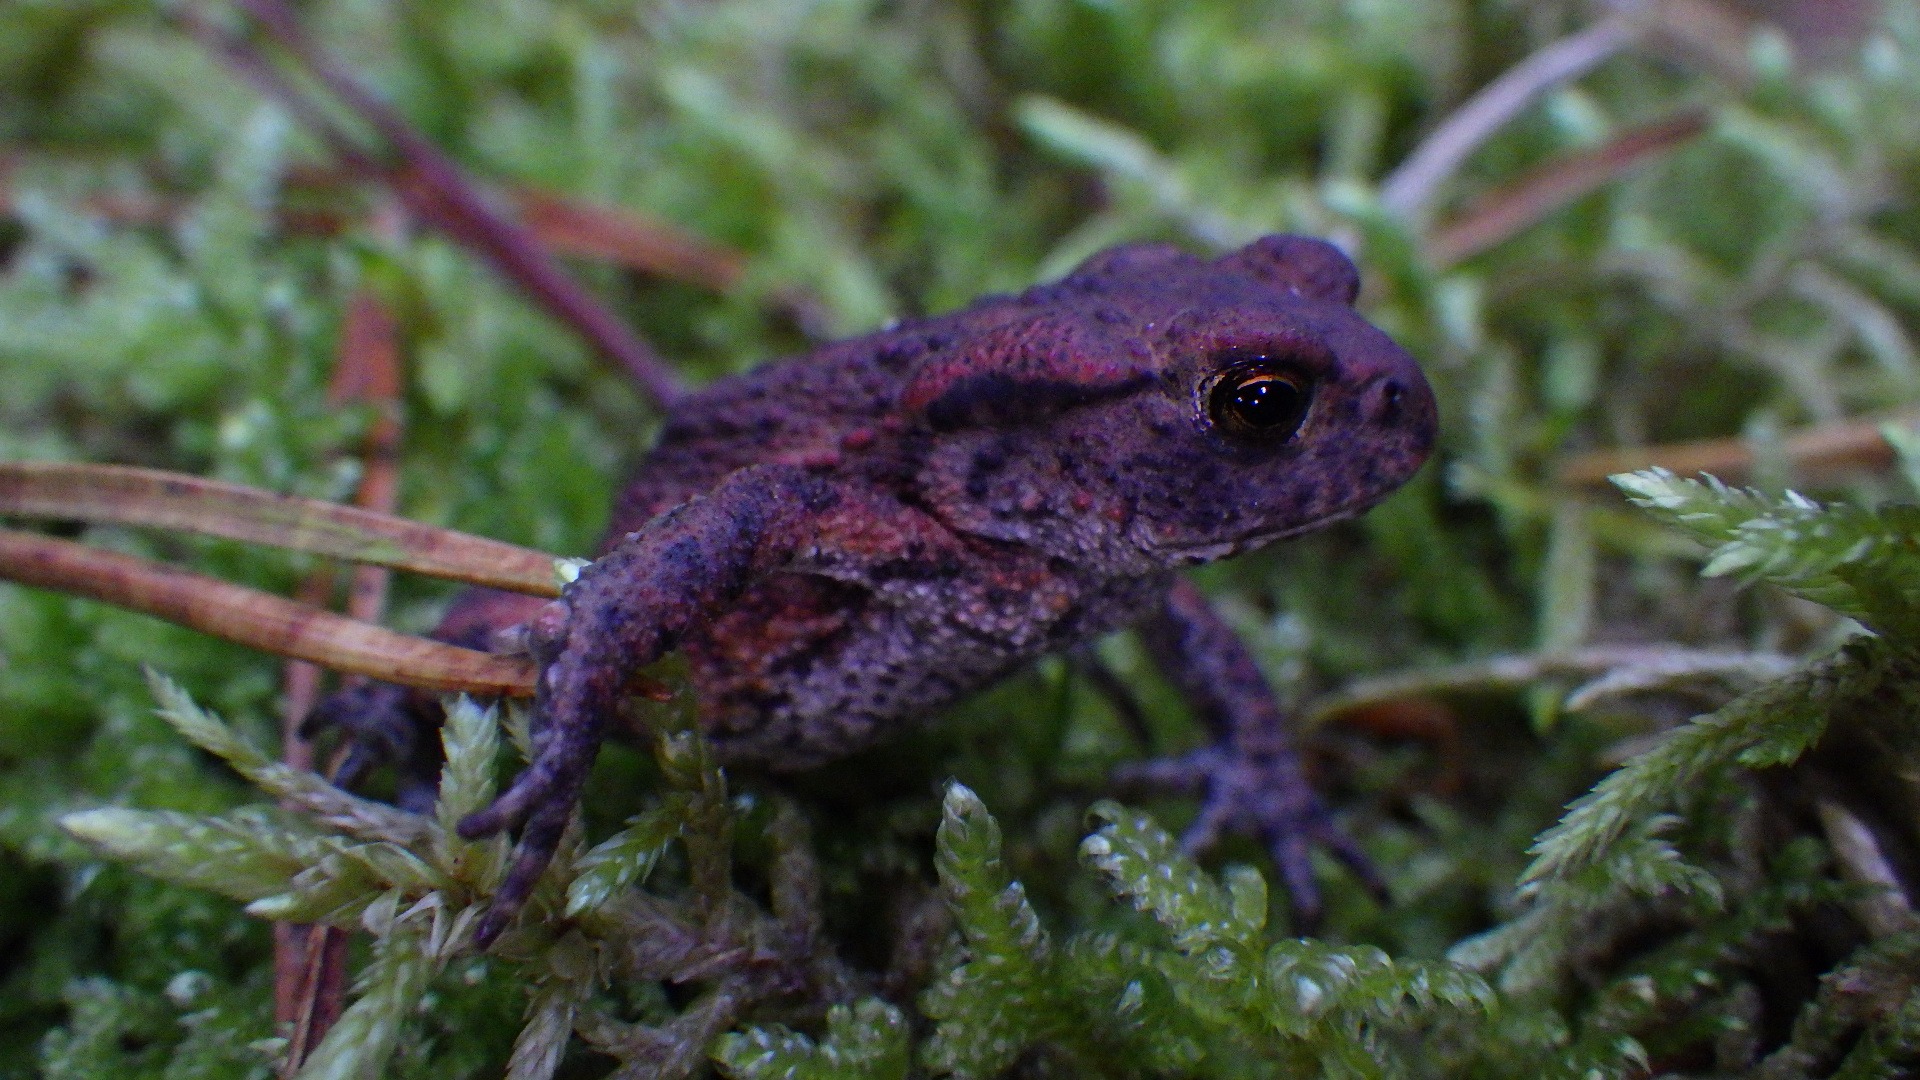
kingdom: Animalia
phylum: Chordata
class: Amphibia
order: Anura
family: Bufonidae
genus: Bufo
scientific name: Bufo bufo
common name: Skrubtudse
